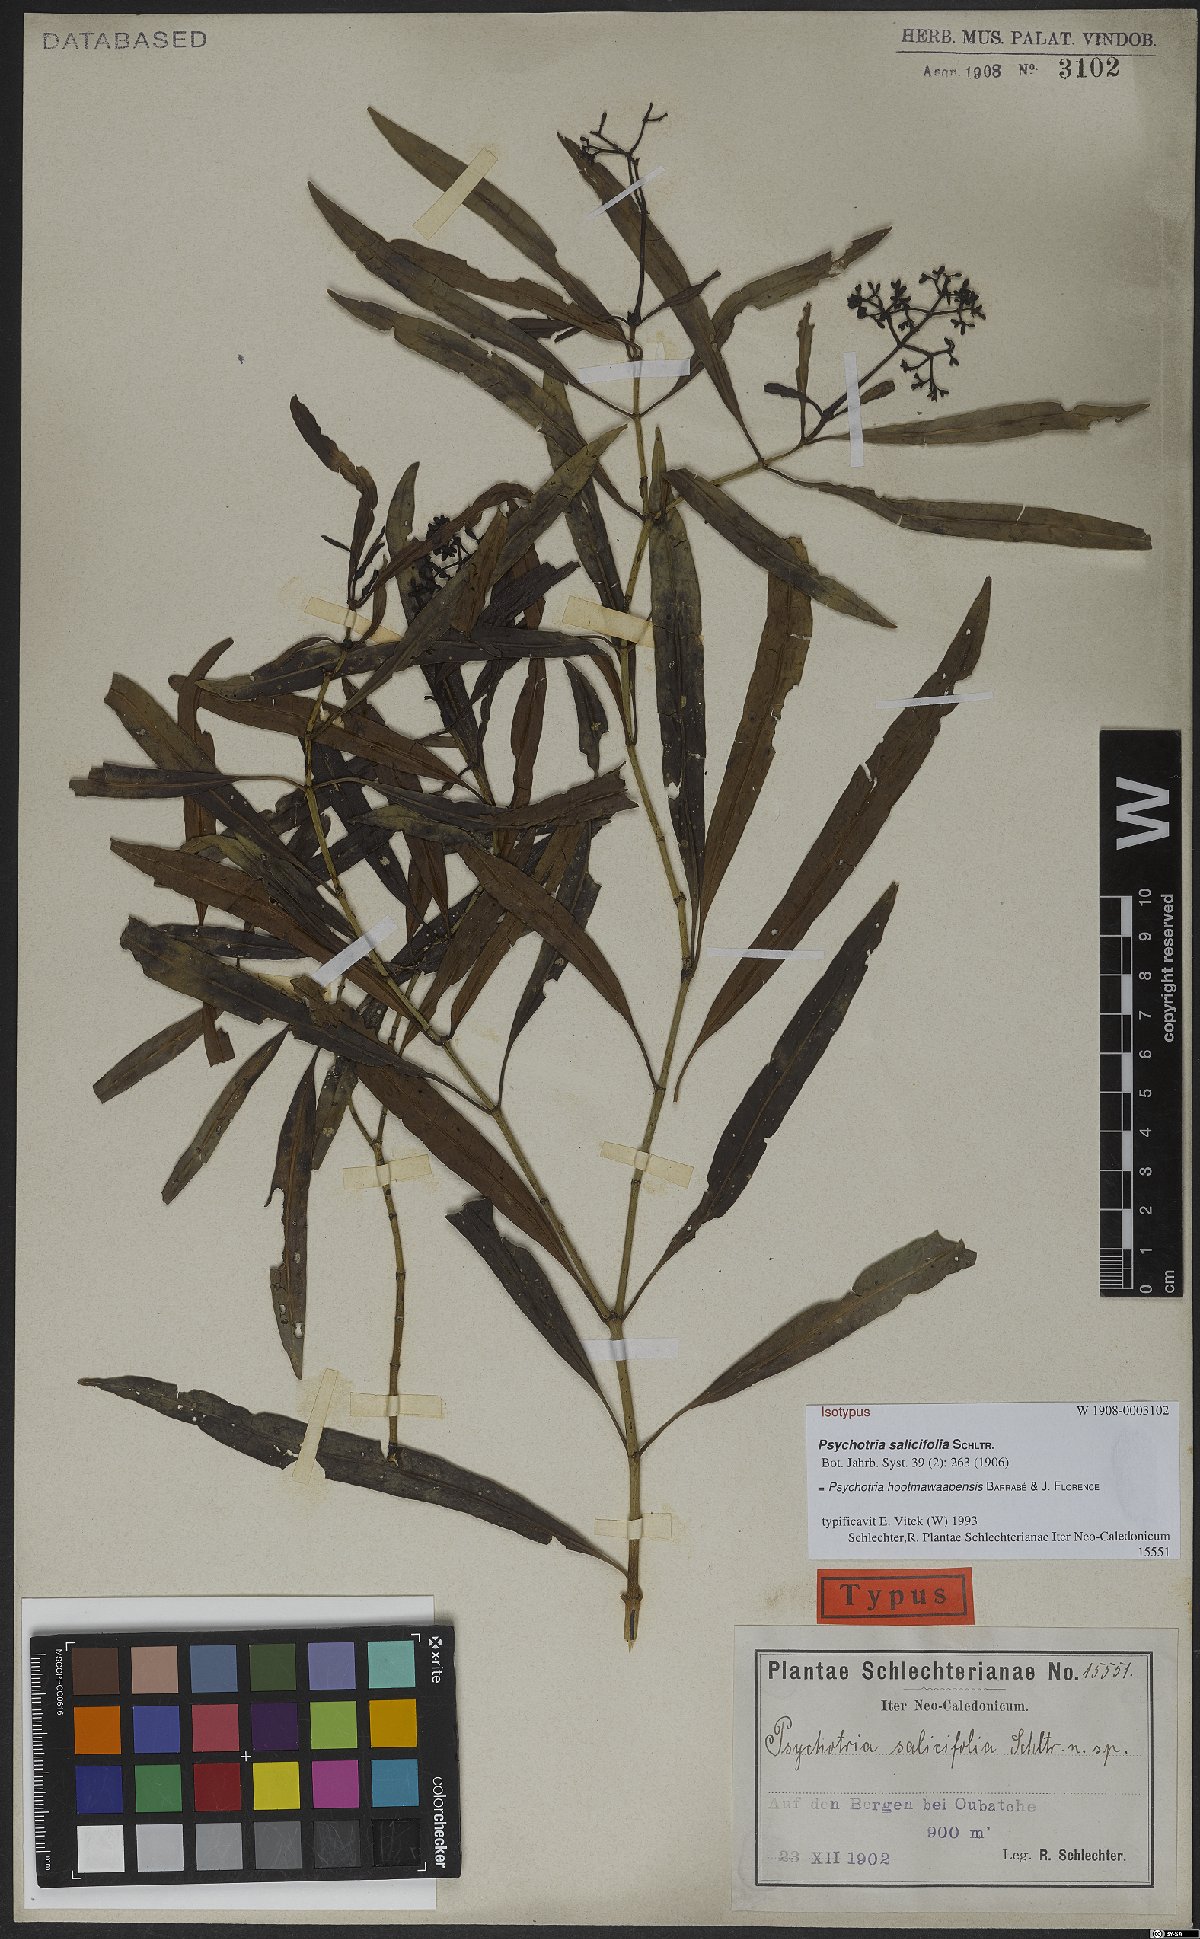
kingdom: Plantae
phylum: Tracheophyta
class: Magnoliopsida
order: Gentianales
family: Rubiaceae
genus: Psychotria
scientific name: Psychotria hootmawaapensis
